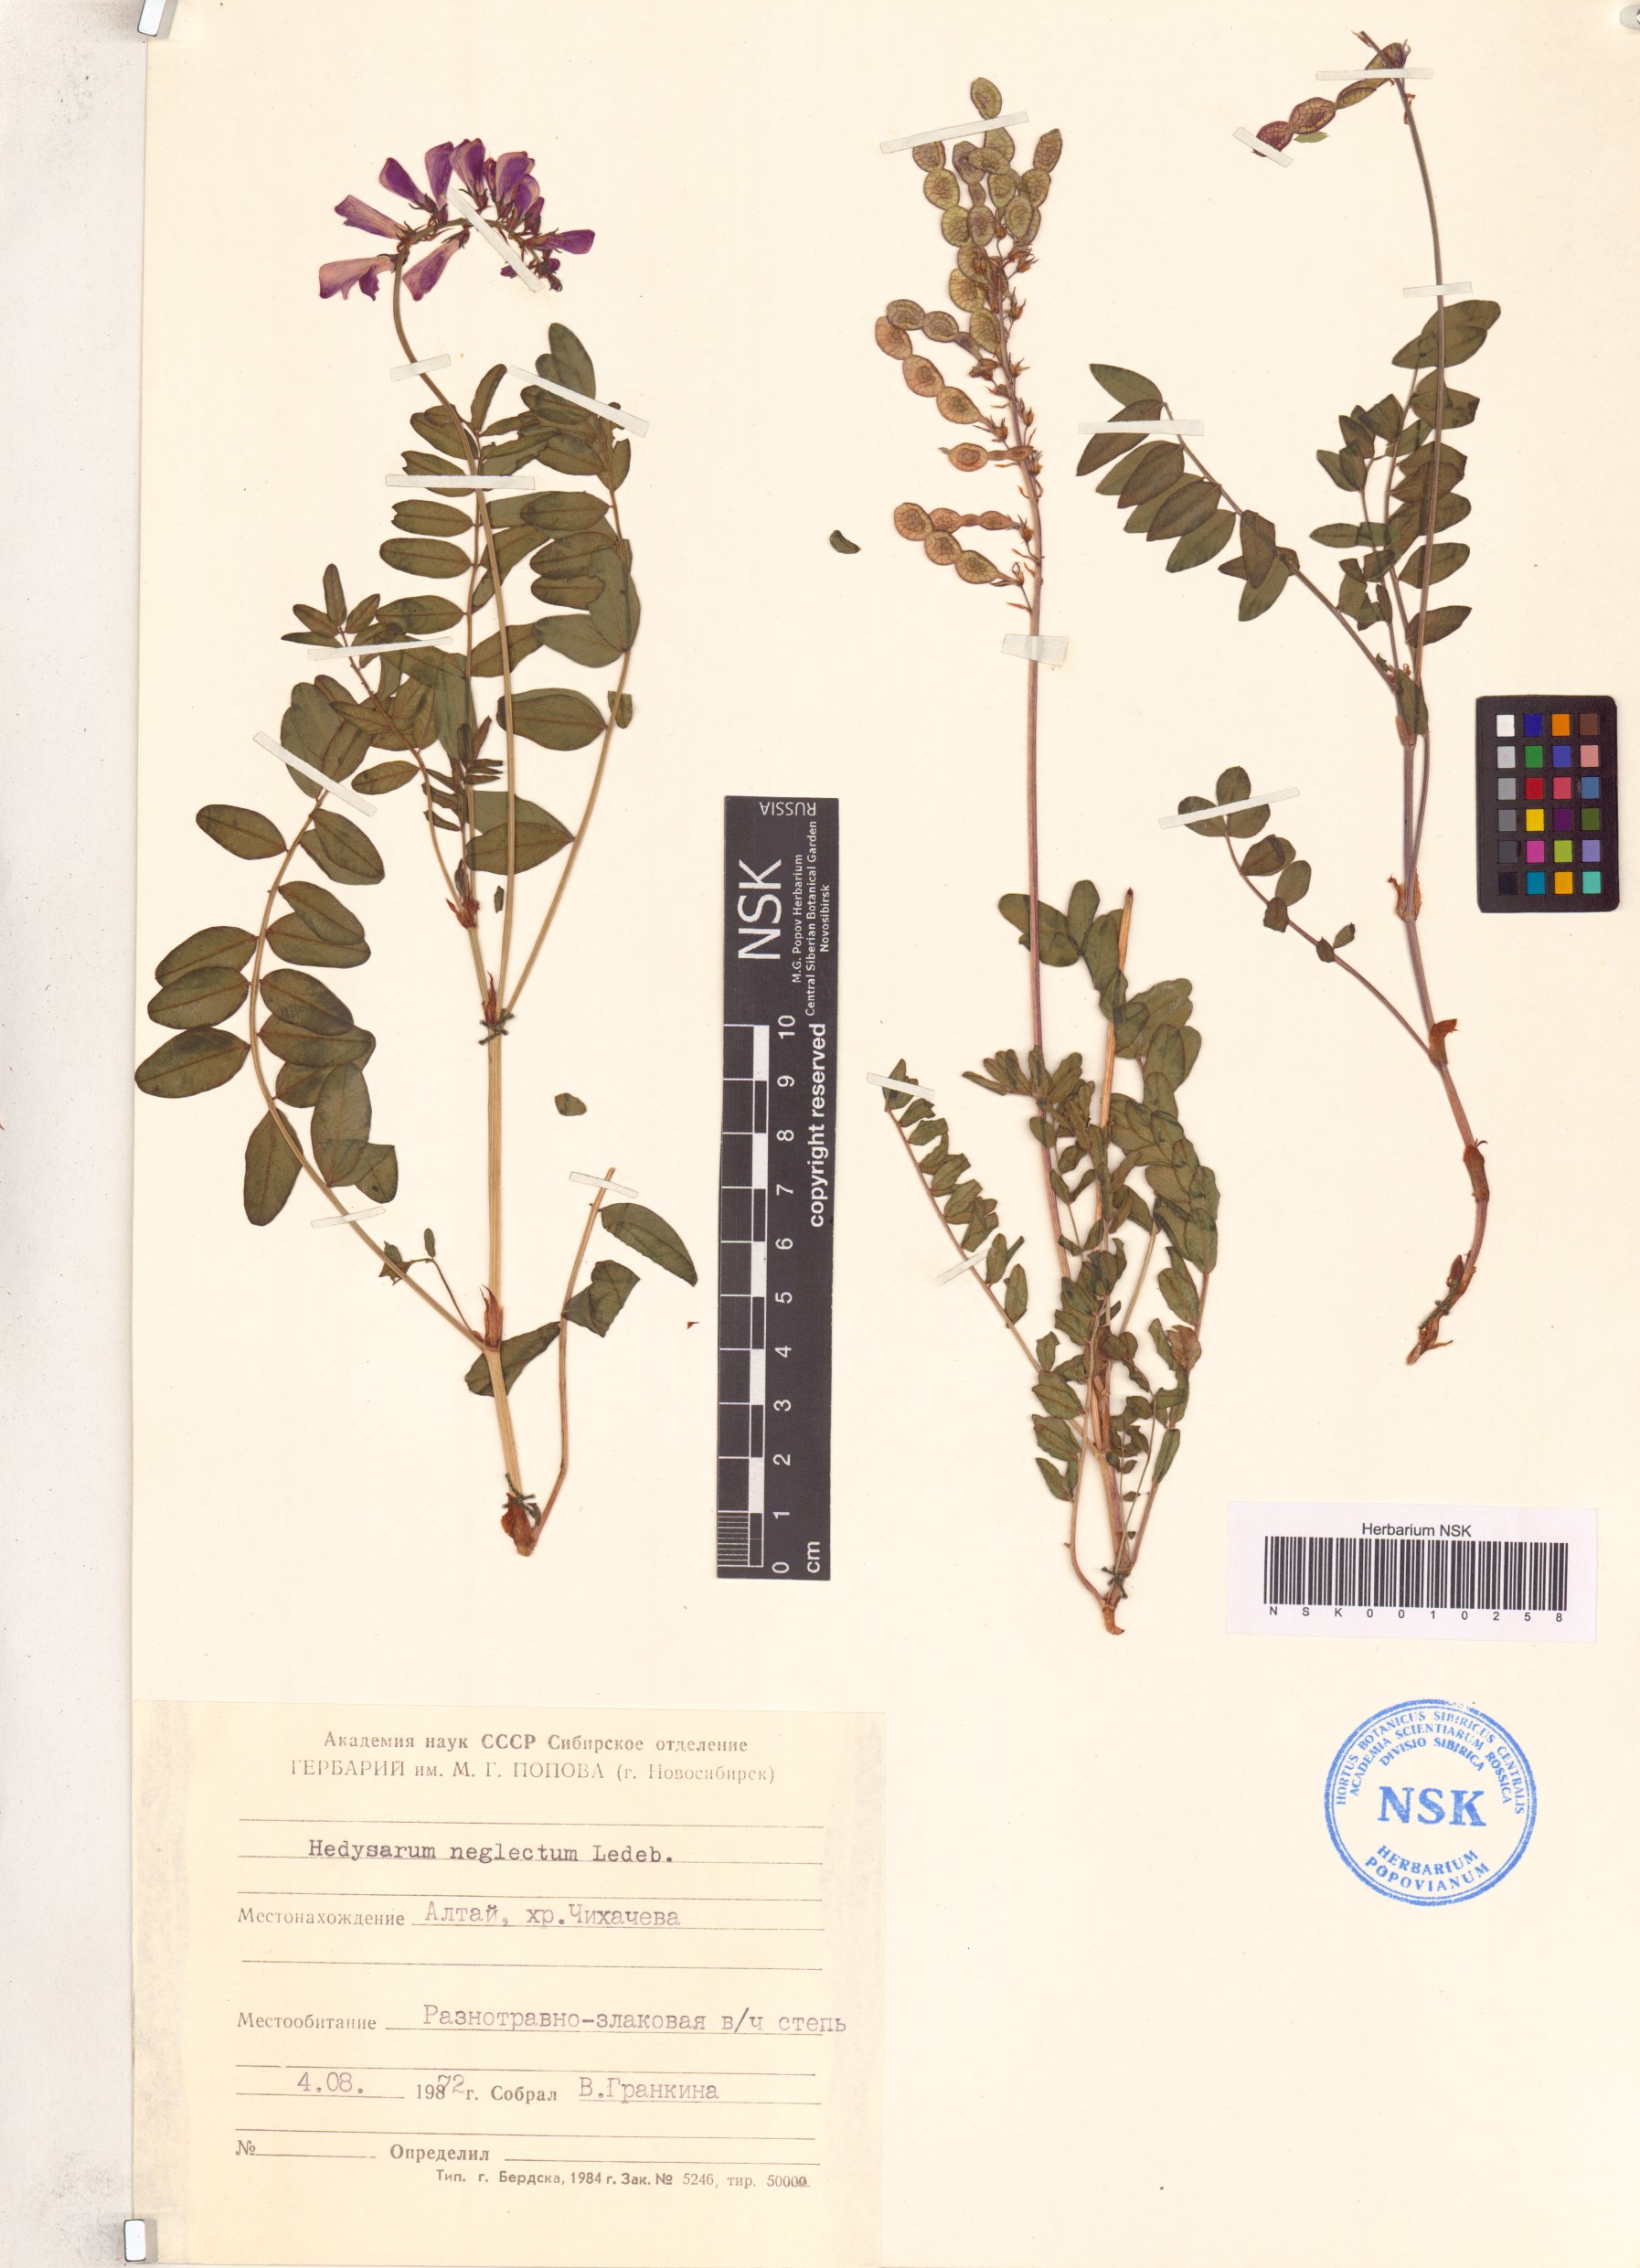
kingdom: Plantae
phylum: Tracheophyta
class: Magnoliopsida
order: Fabales
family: Fabaceae
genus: Hedysarum
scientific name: Hedysarum neglectum
